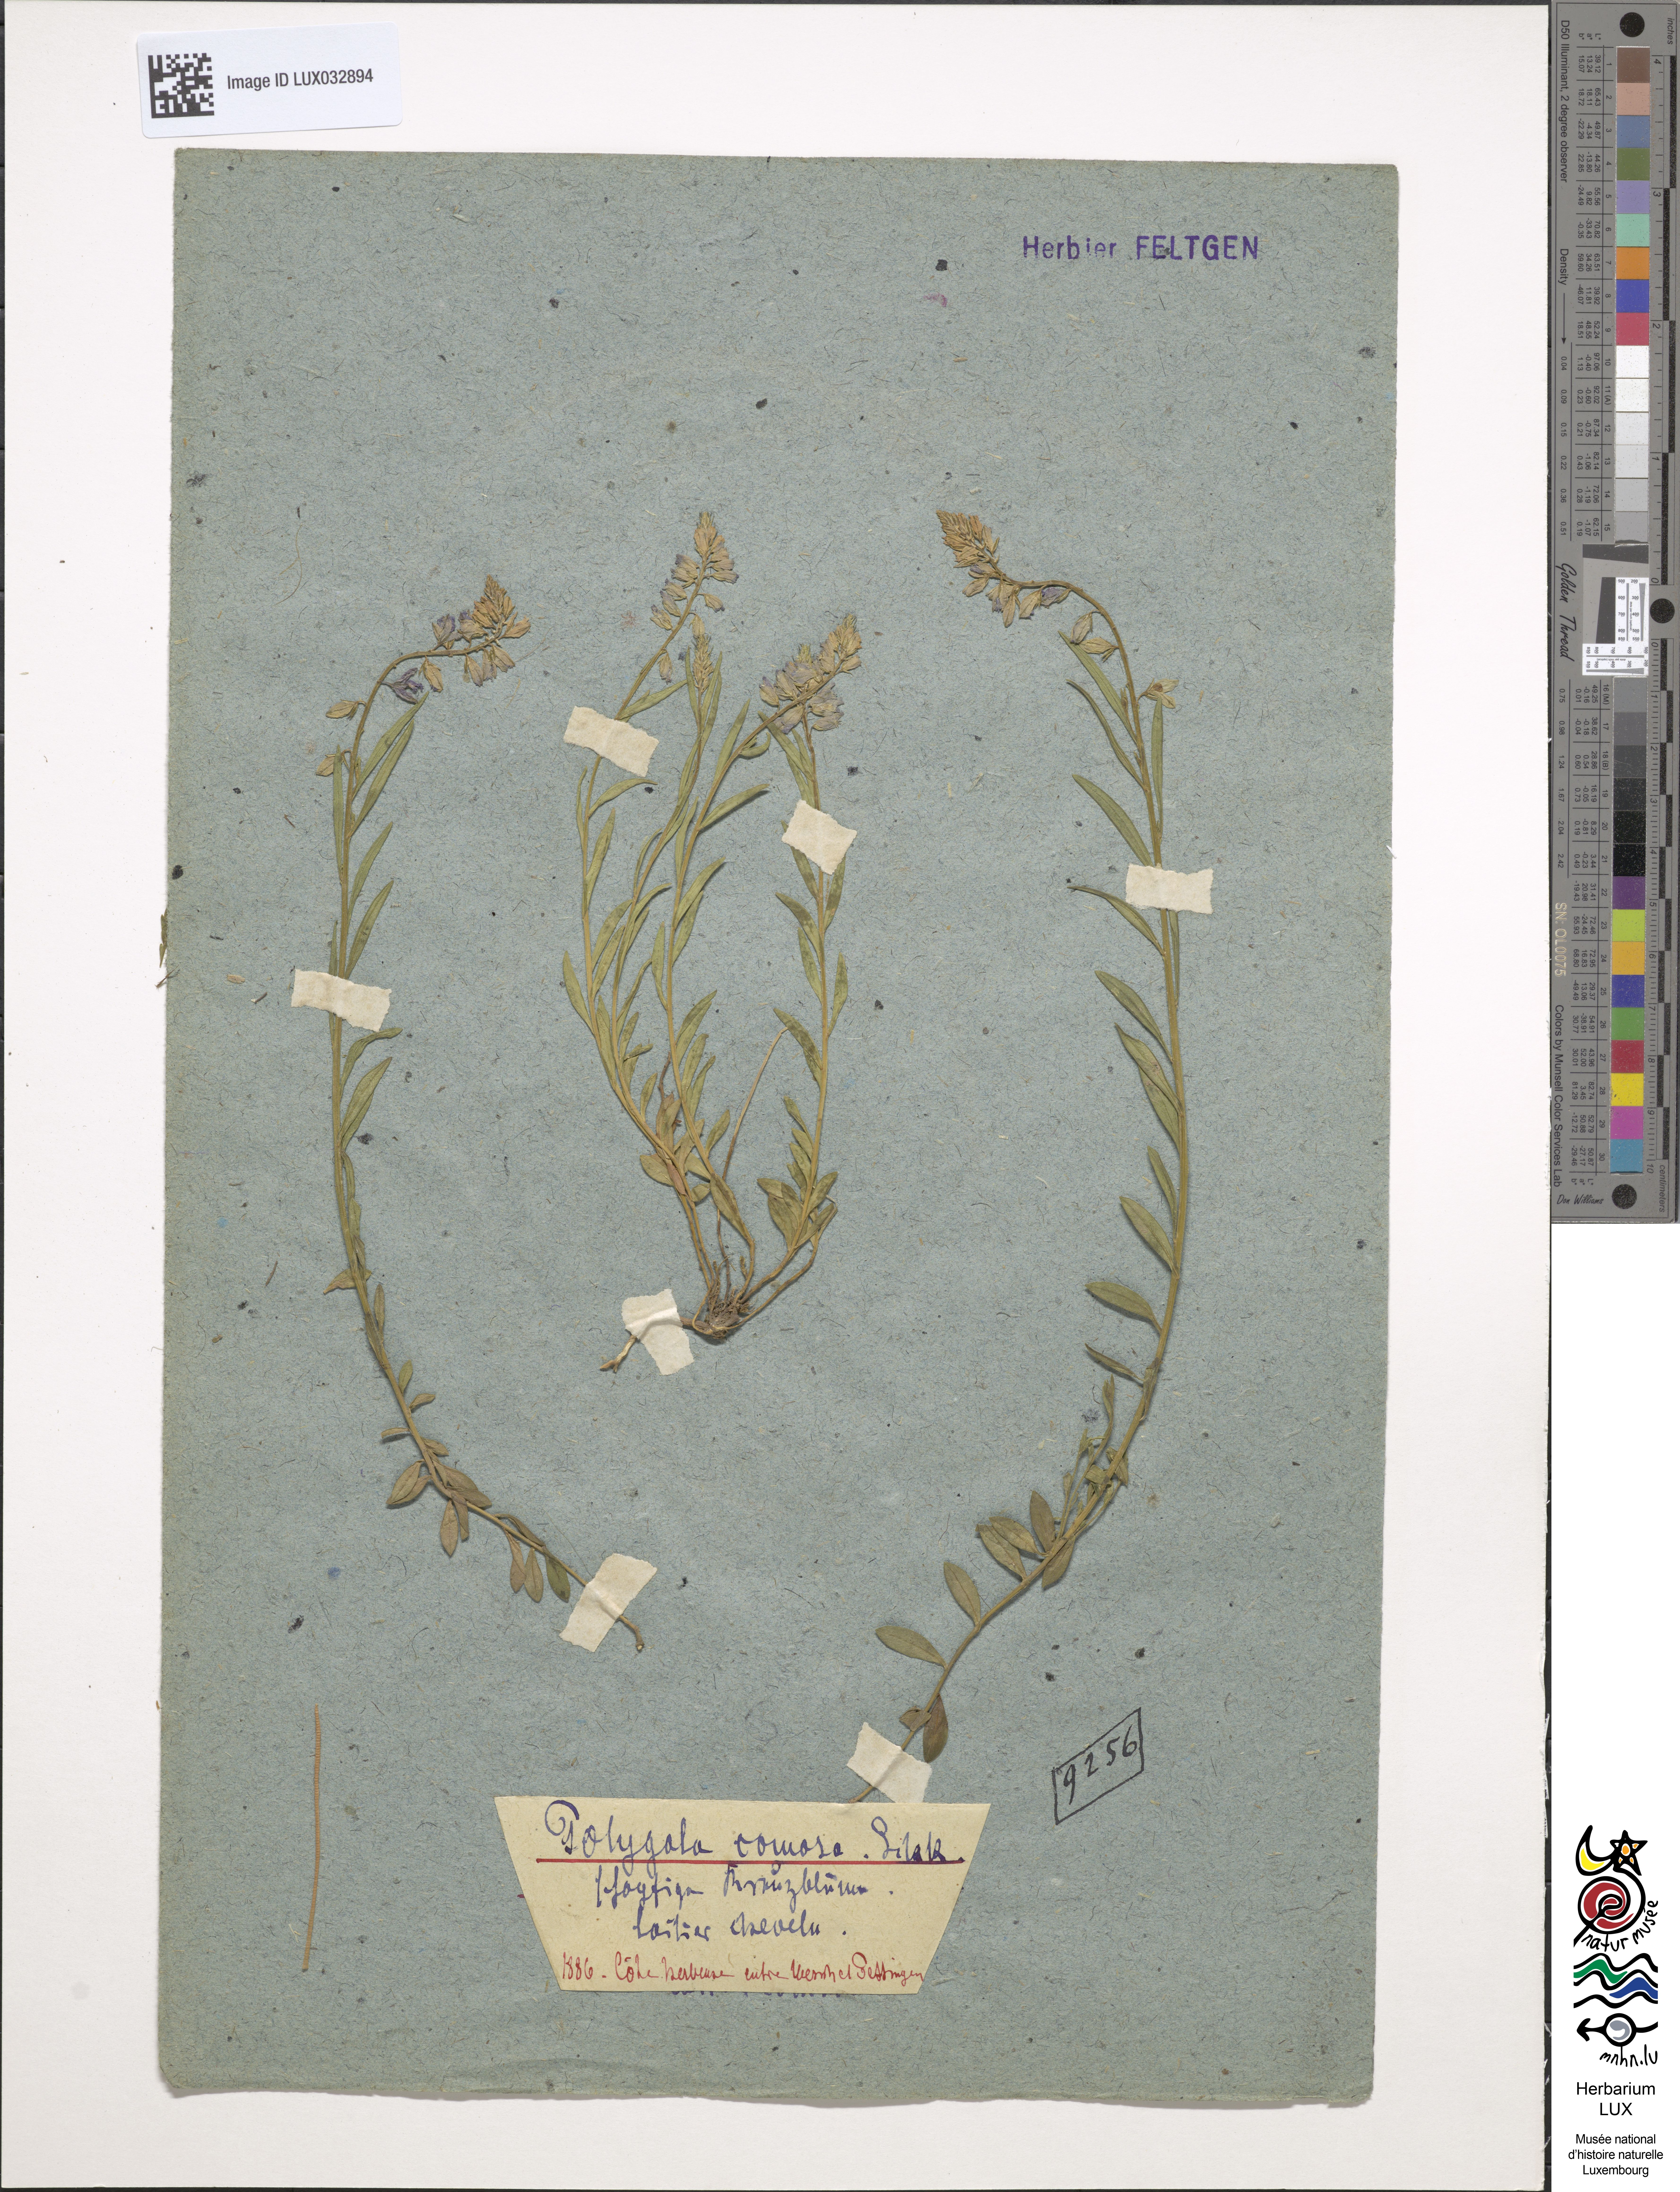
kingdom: Plantae
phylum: Tracheophyta
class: Magnoliopsida
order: Fabales
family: Polygalaceae
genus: Polygala
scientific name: Polygala comosa
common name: Tufted milkwort
